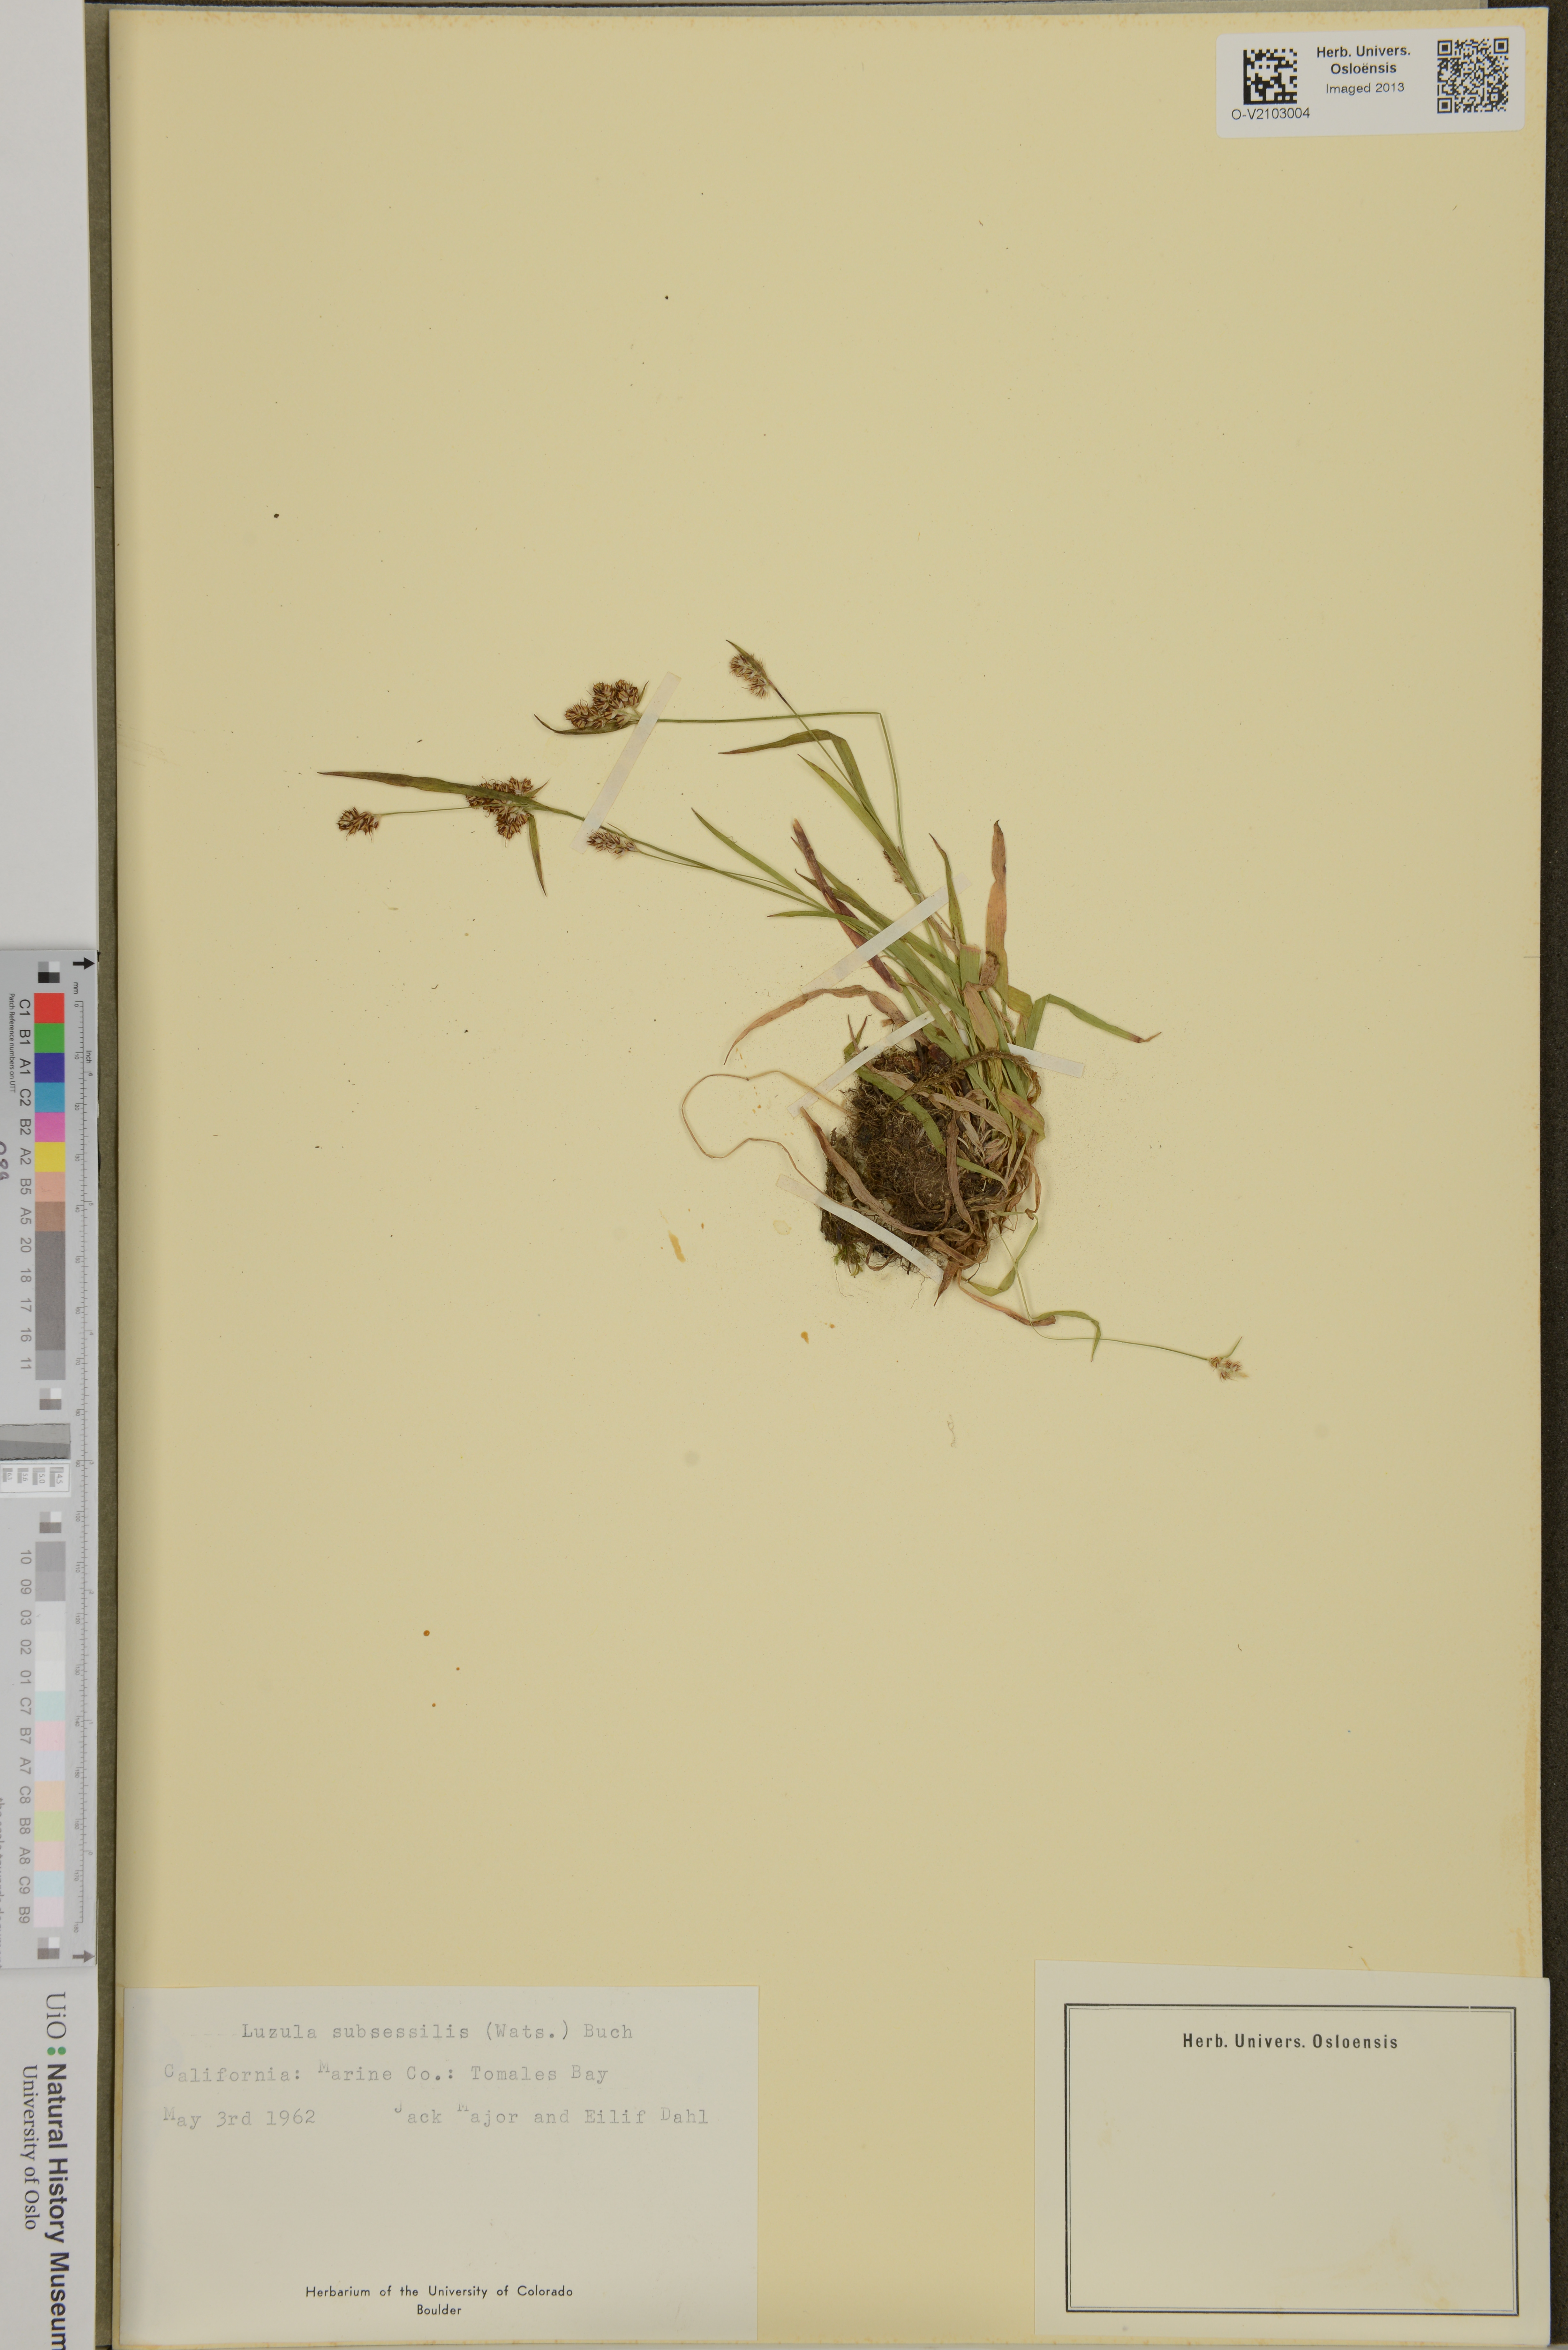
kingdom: Plantae
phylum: Tracheophyta
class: Liliopsida
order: Poales
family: Juncaceae
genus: Luzula
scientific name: Luzula macrantha
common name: Large-anthered woodrush
